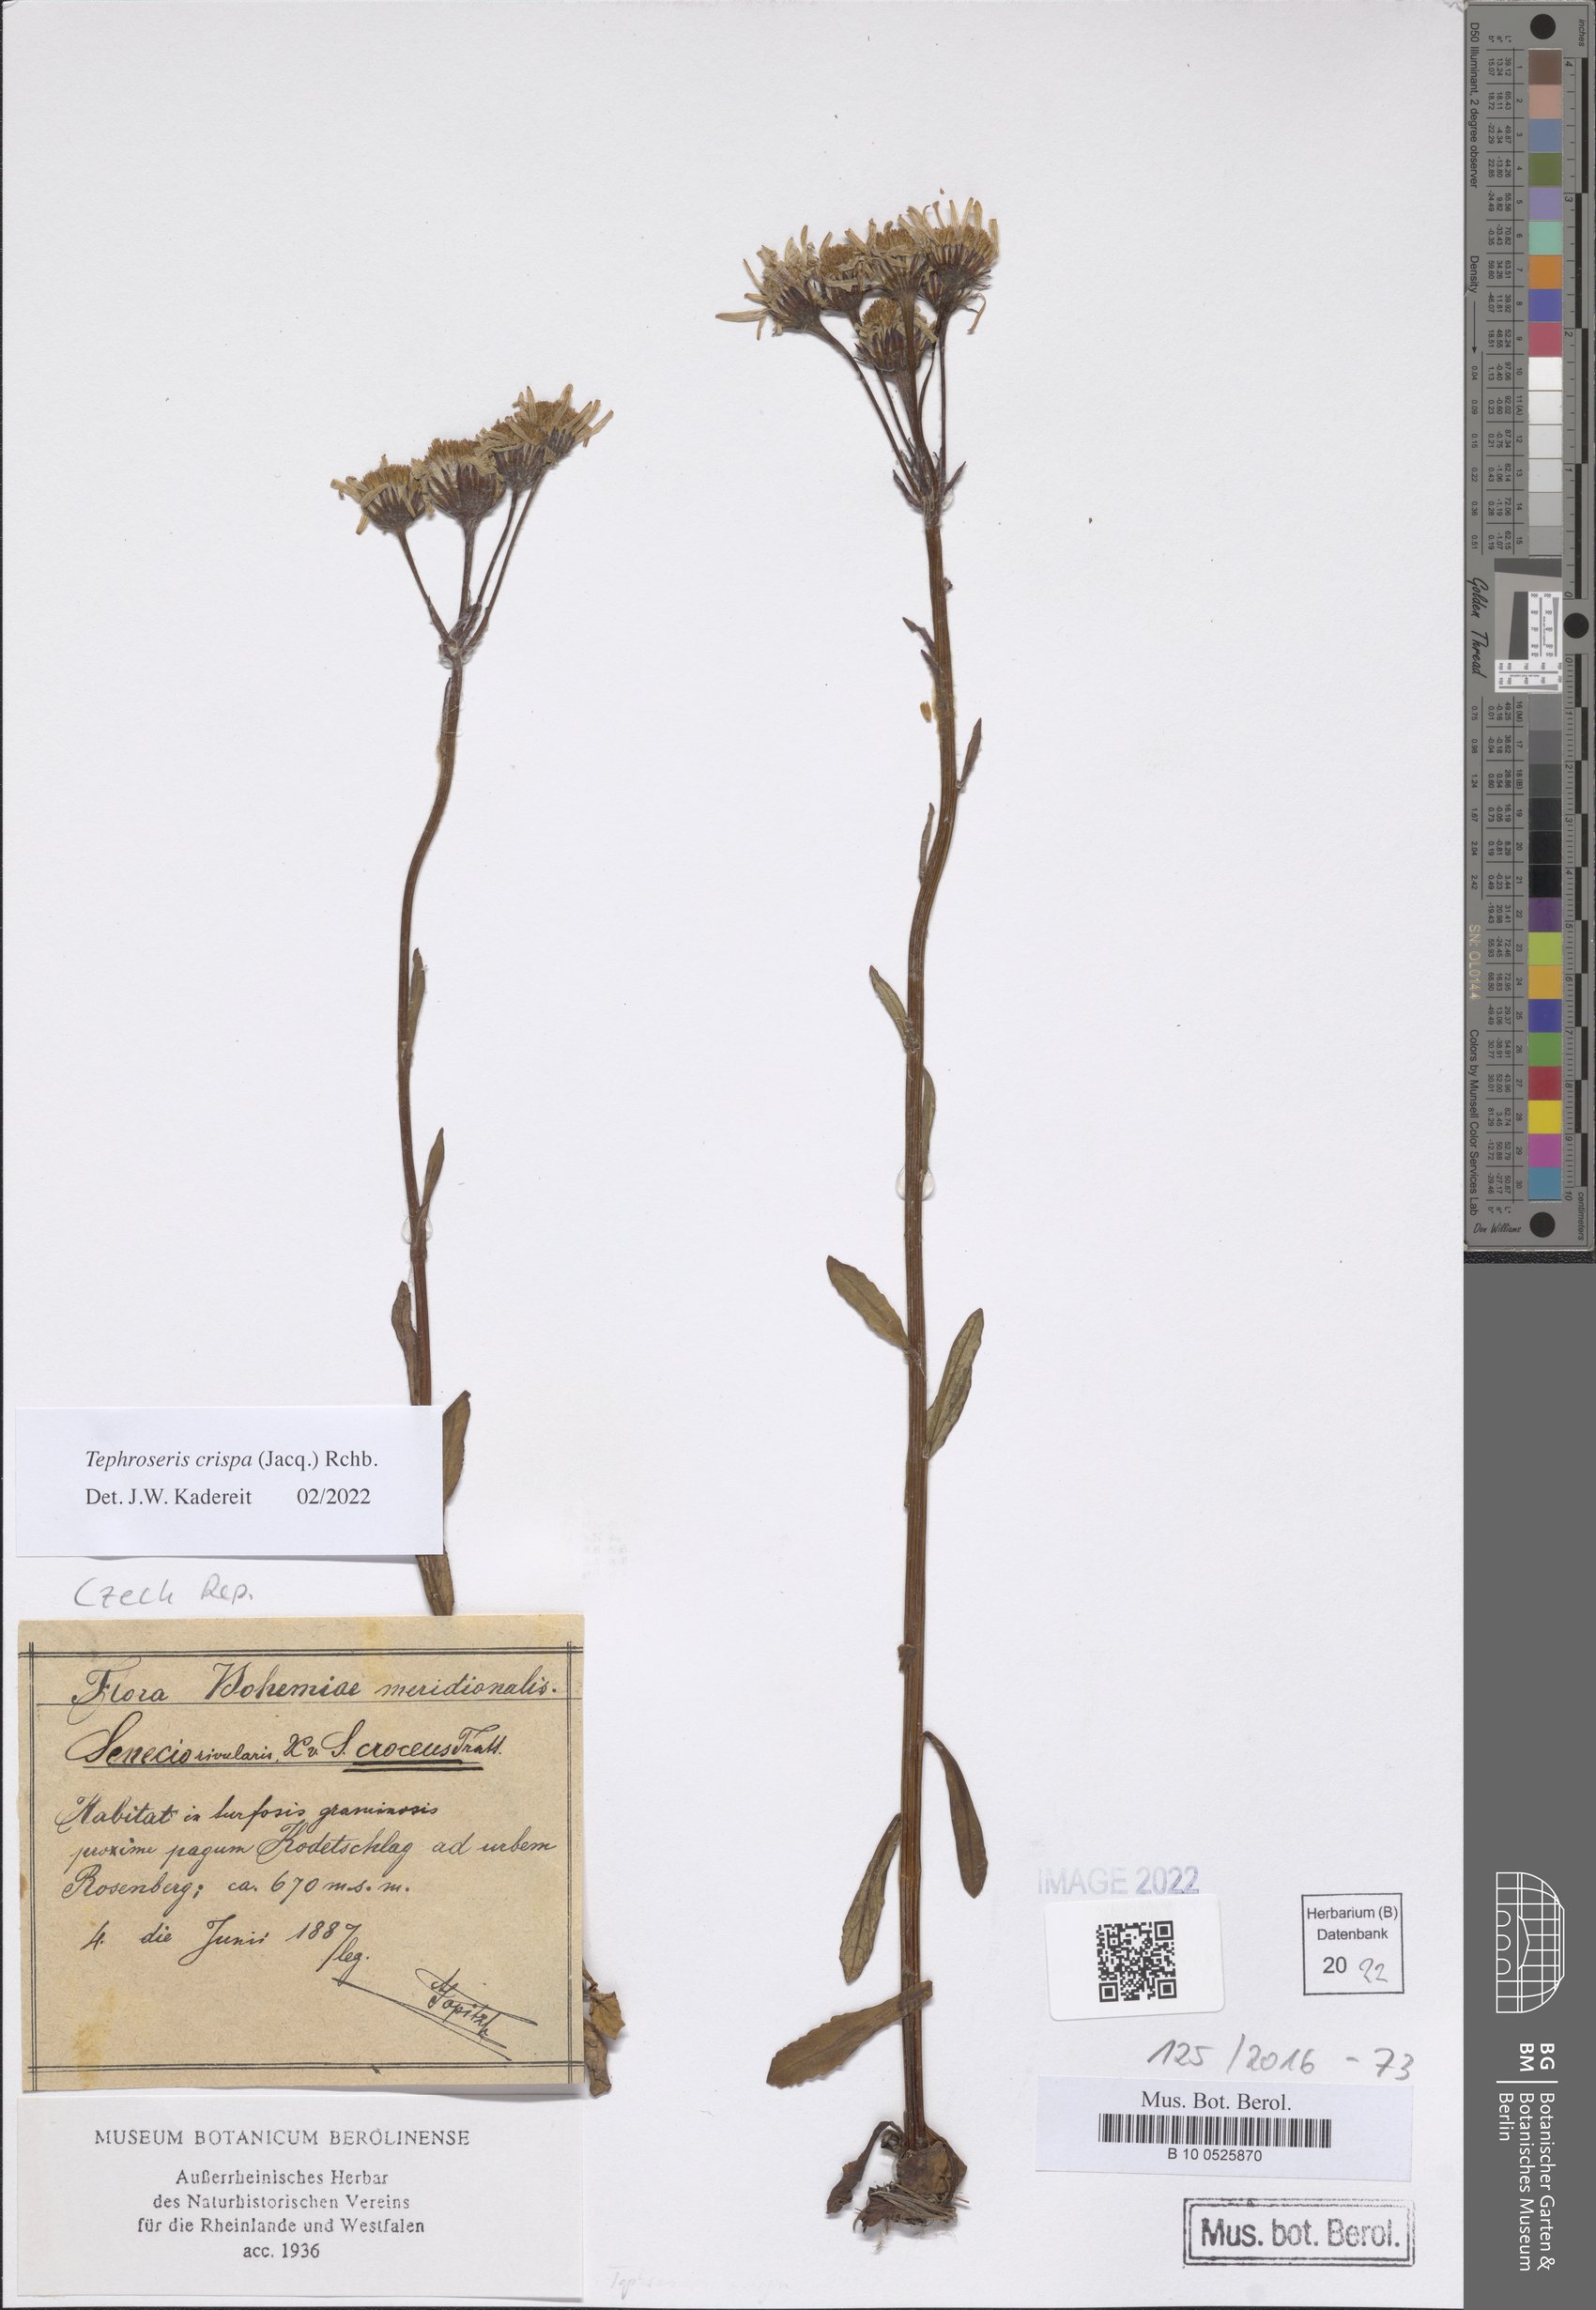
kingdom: Plantae
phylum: Tracheophyta
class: Magnoliopsida
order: Asterales
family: Asteraceae
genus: Tephroseris
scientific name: Tephroseris crispa
